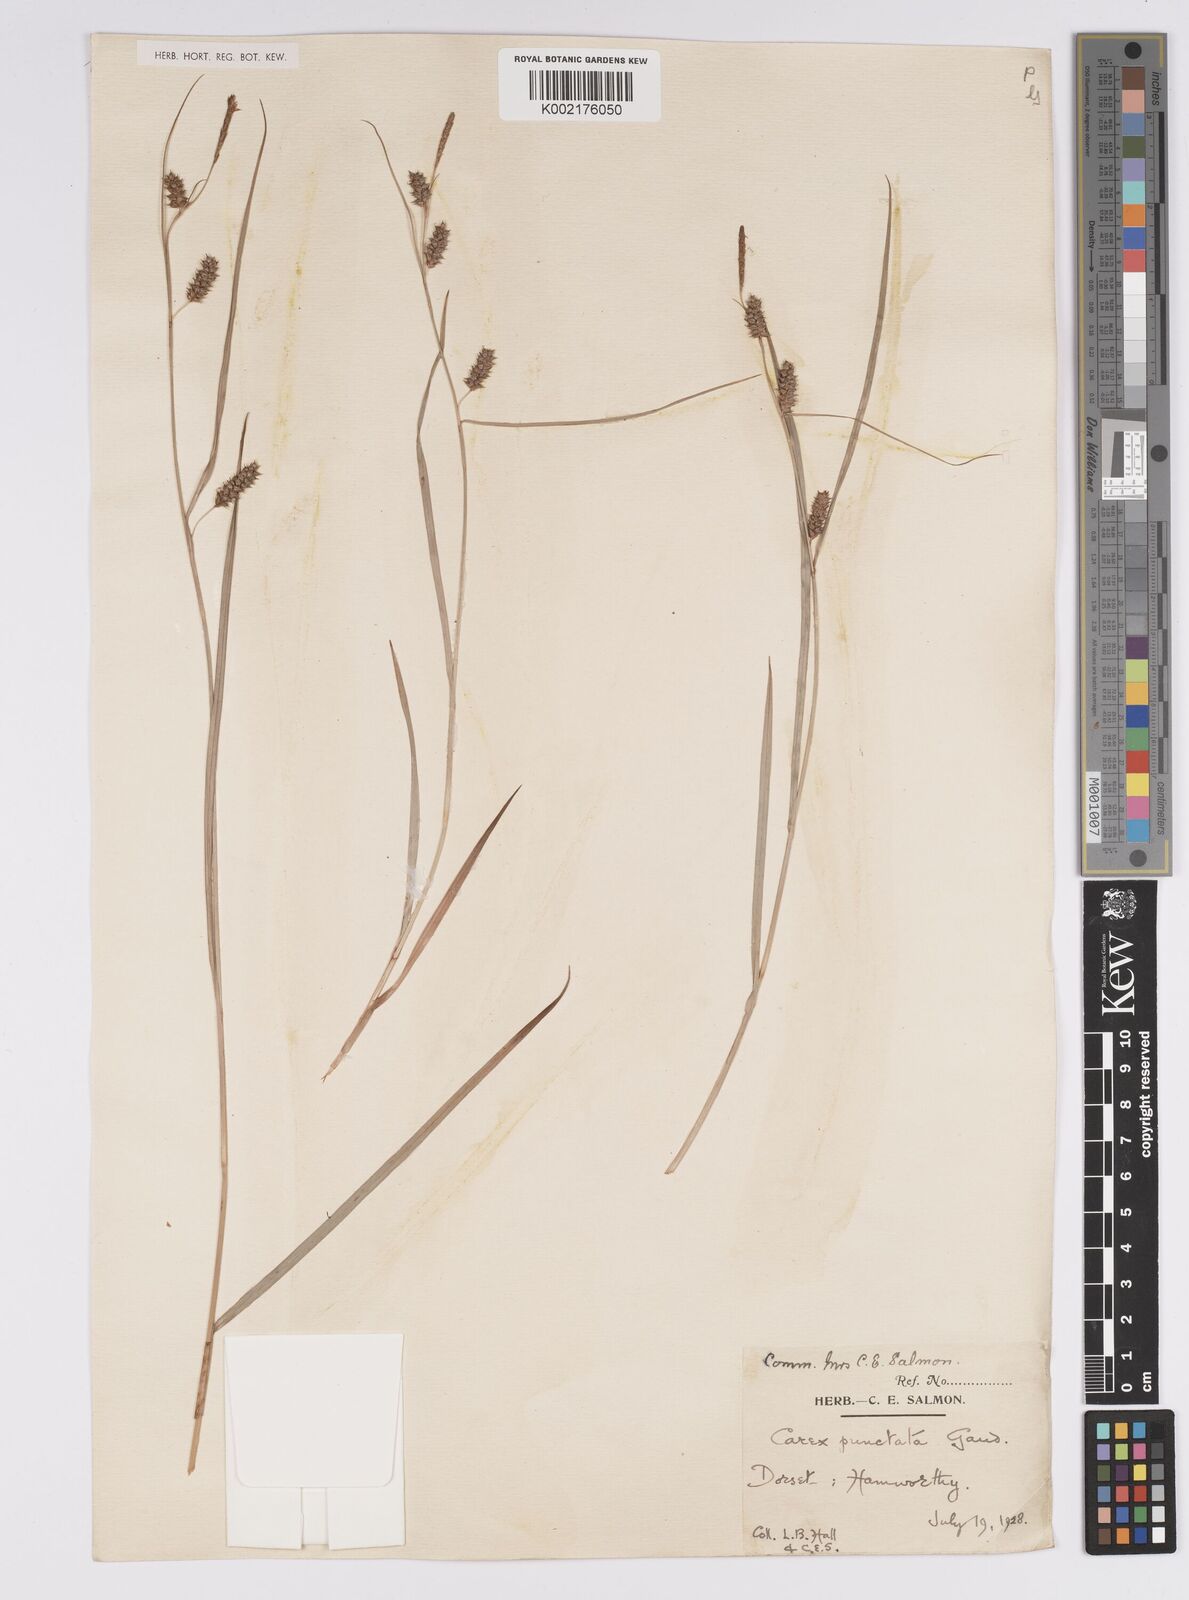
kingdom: Plantae
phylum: Tracheophyta
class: Liliopsida
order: Poales
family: Cyperaceae
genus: Carex
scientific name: Carex punctata
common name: Dotted sedge
